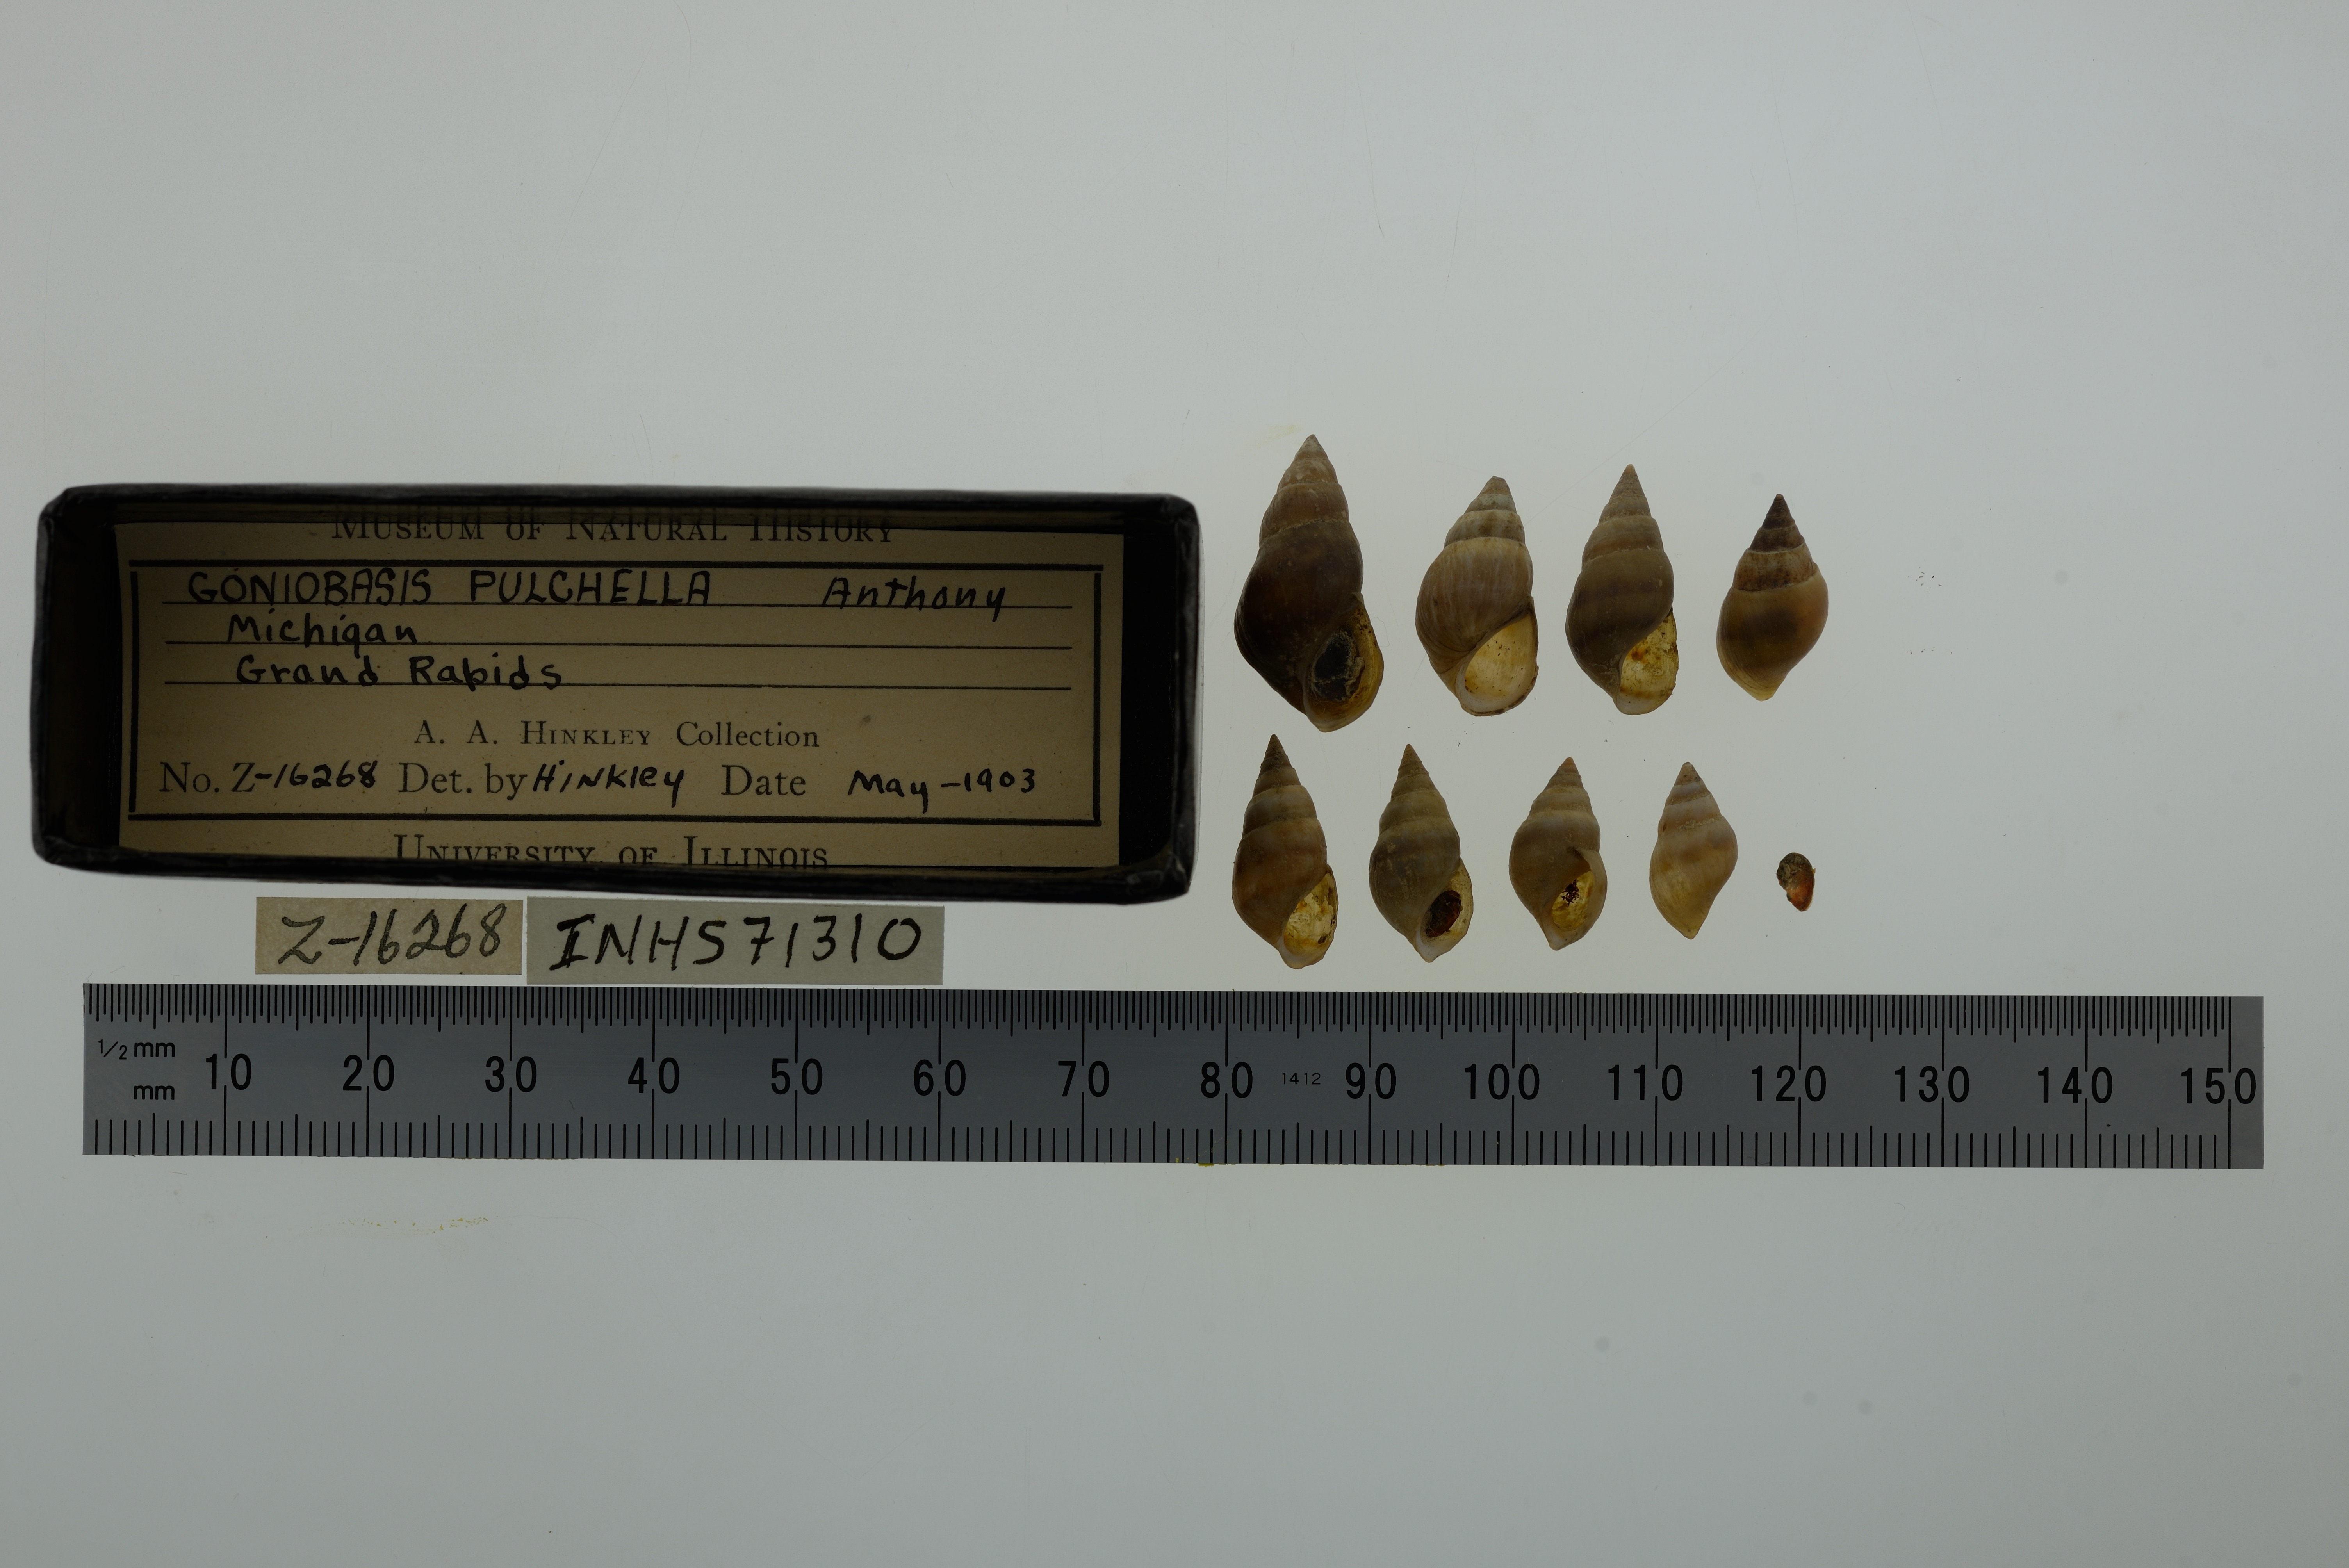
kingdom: Animalia
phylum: Mollusca
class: Gastropoda
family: Pleuroceridae
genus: Elimia
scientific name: Elimia livescens
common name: Liver elimia
